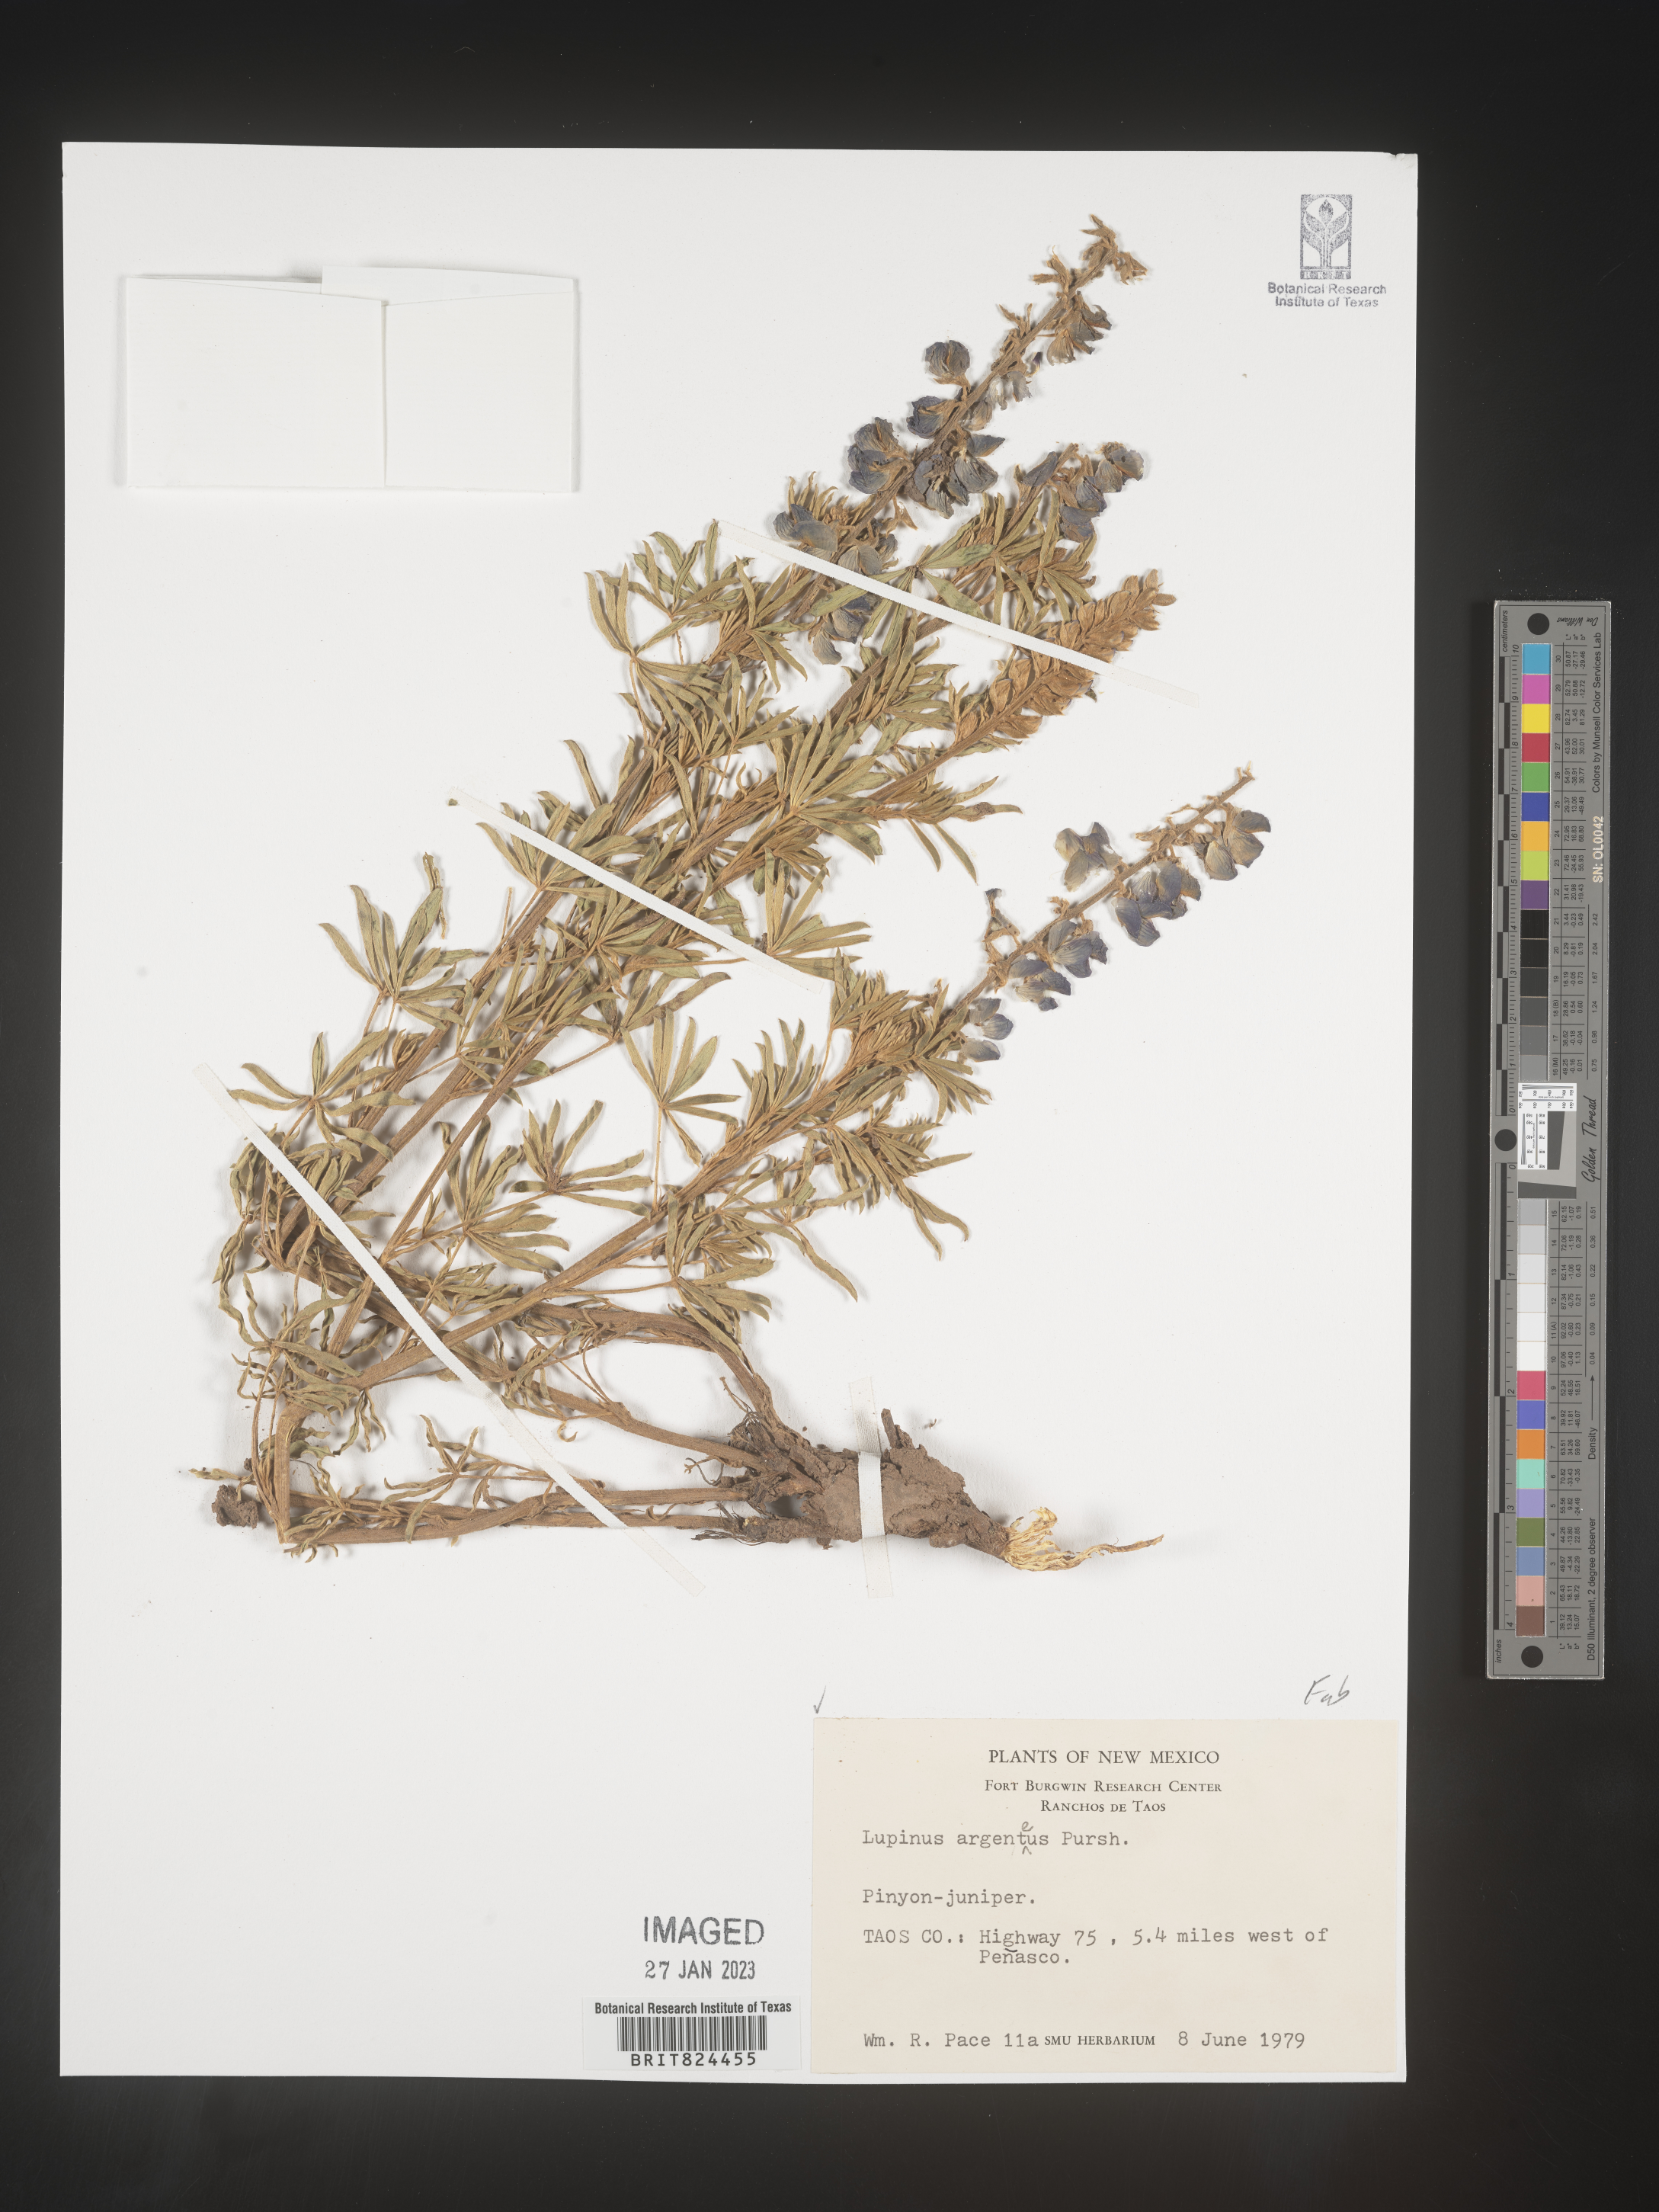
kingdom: Plantae
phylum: Tracheophyta
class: Magnoliopsida
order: Fabales
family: Fabaceae
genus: Lupinus
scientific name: Lupinus argenteus
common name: Silvery lupine
